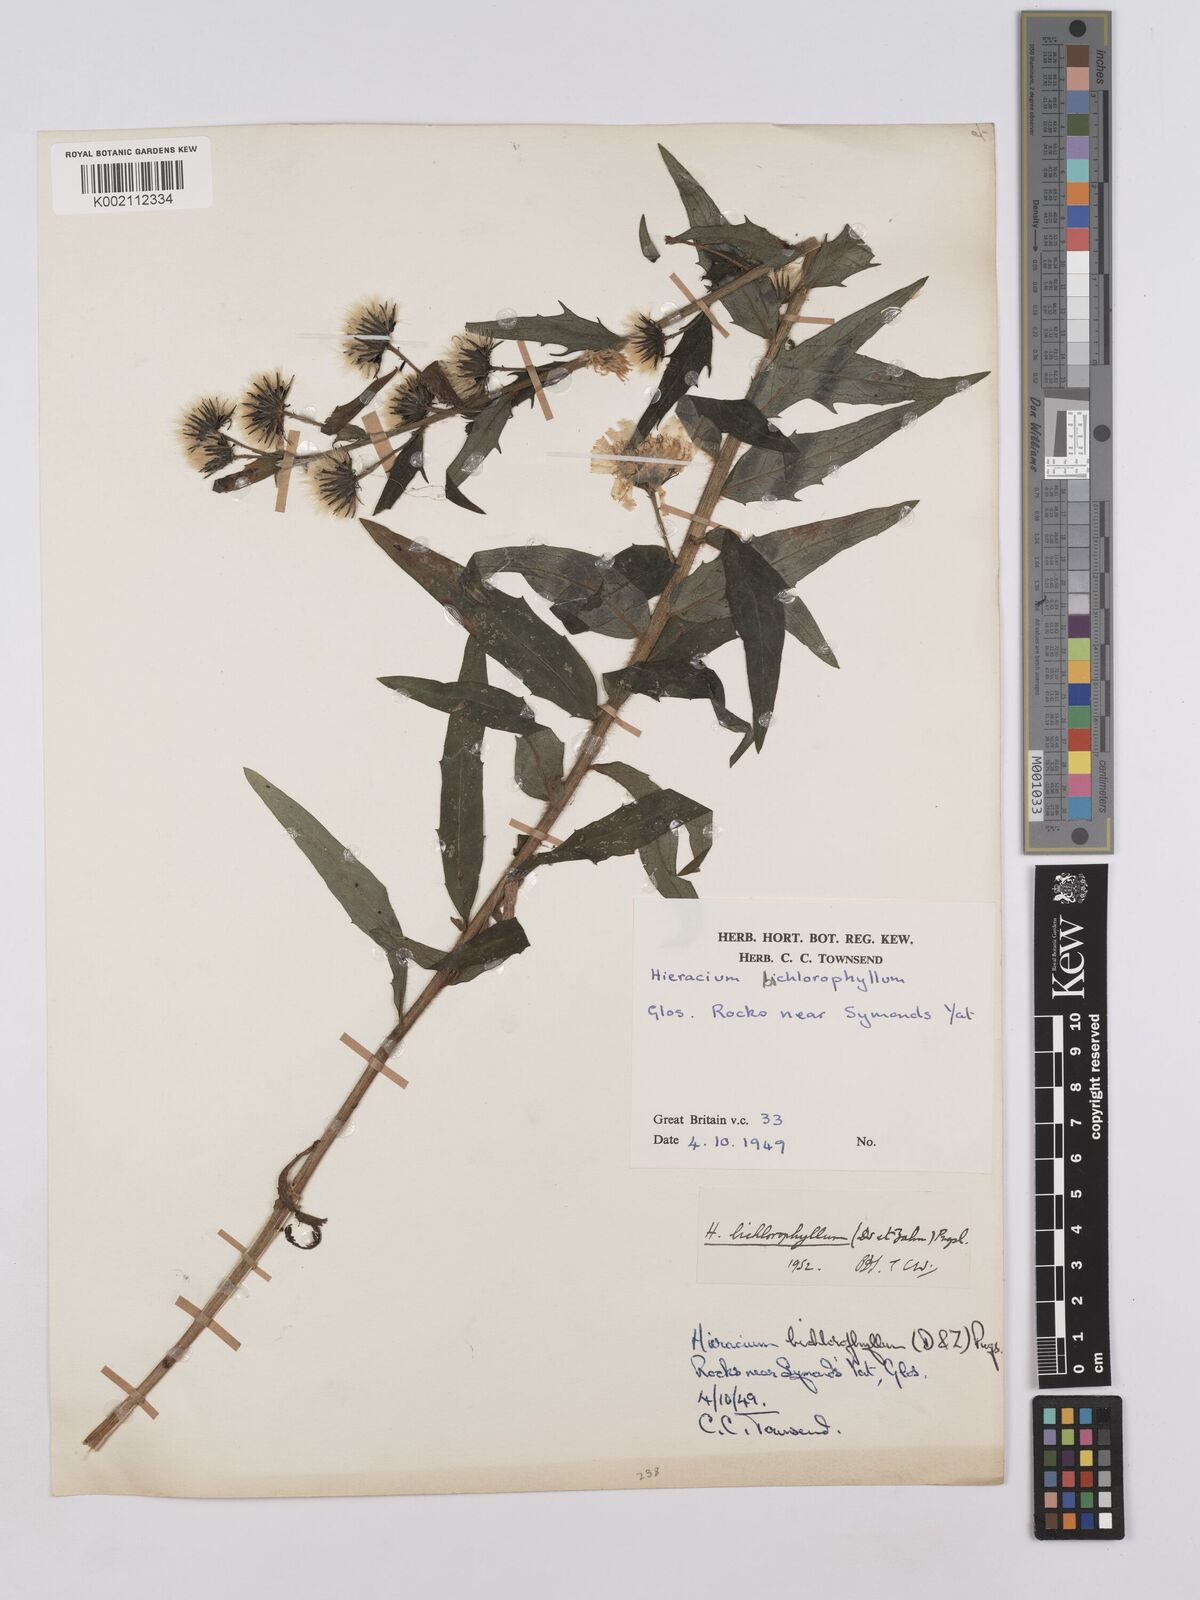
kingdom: Plantae
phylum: Tracheophyta
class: Magnoliopsida
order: Asterales
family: Asteraceae
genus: Hieracium
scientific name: Hieracium umbellatum
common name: Northern hawkweed
